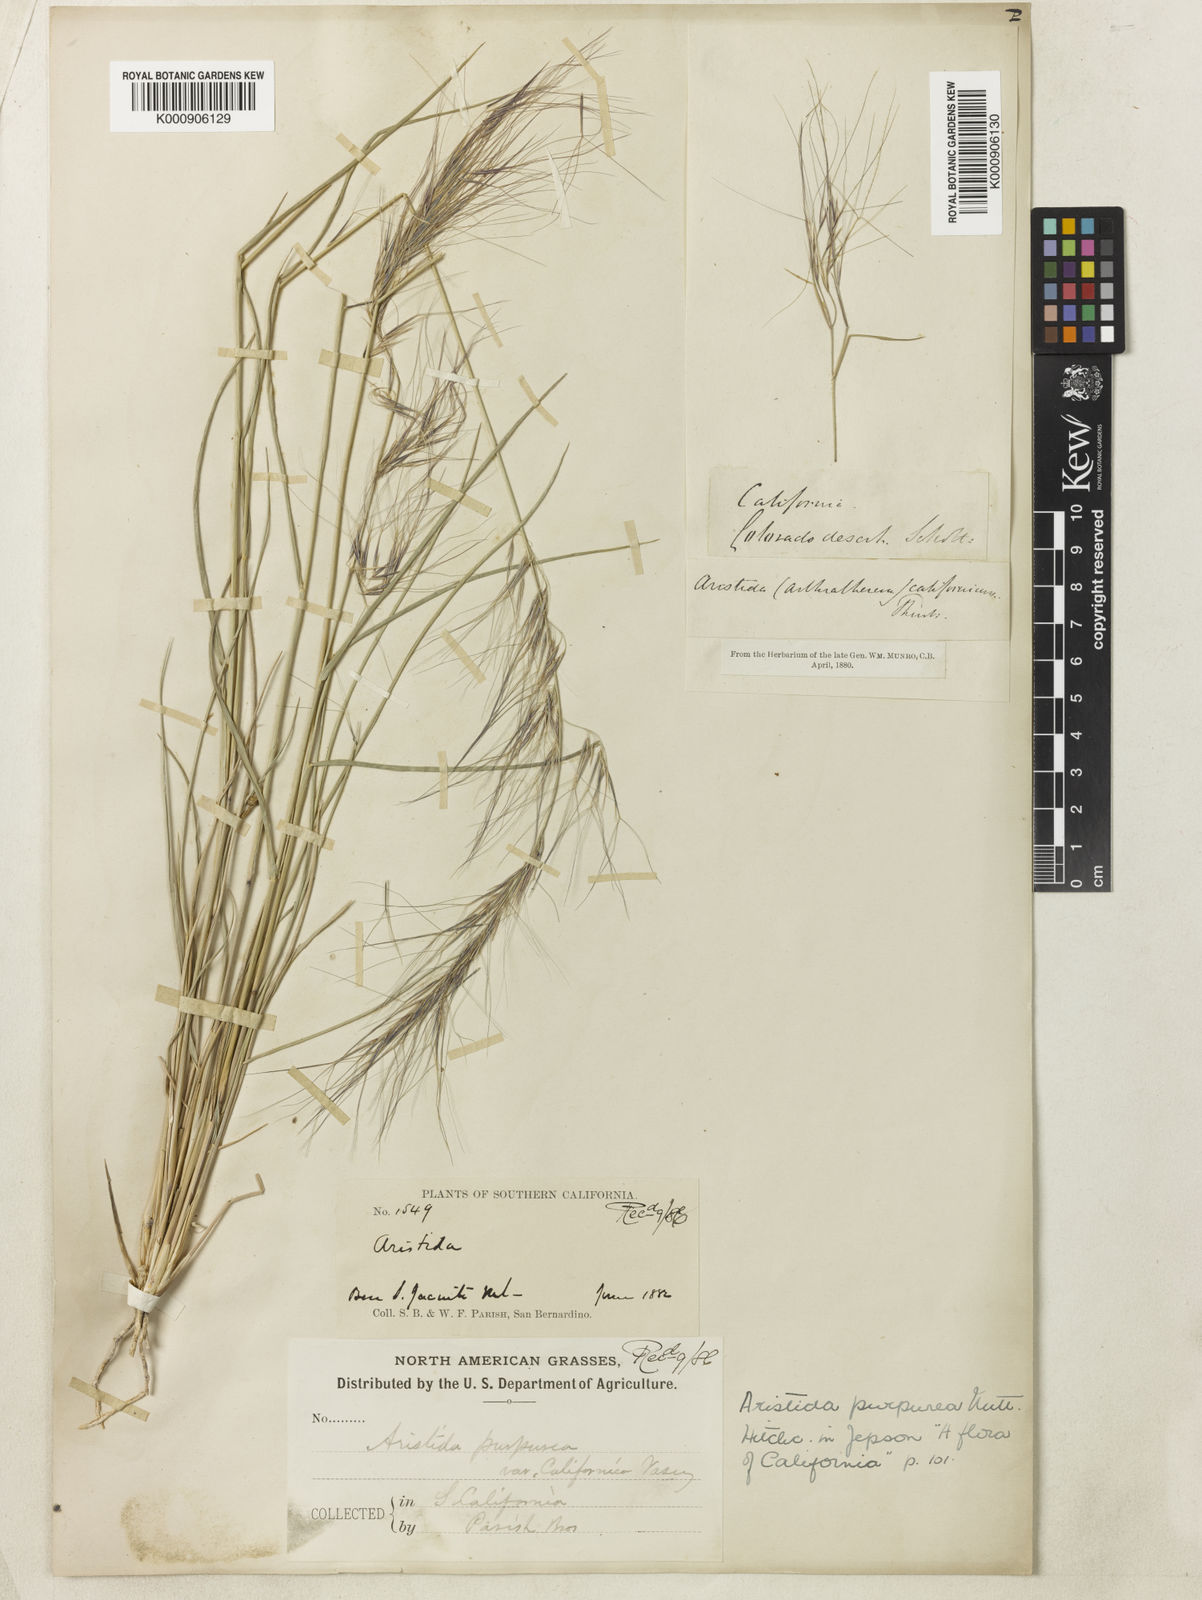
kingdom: Plantae
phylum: Tracheophyta
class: Liliopsida
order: Poales
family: Poaceae
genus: Aristida
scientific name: Aristida californica
